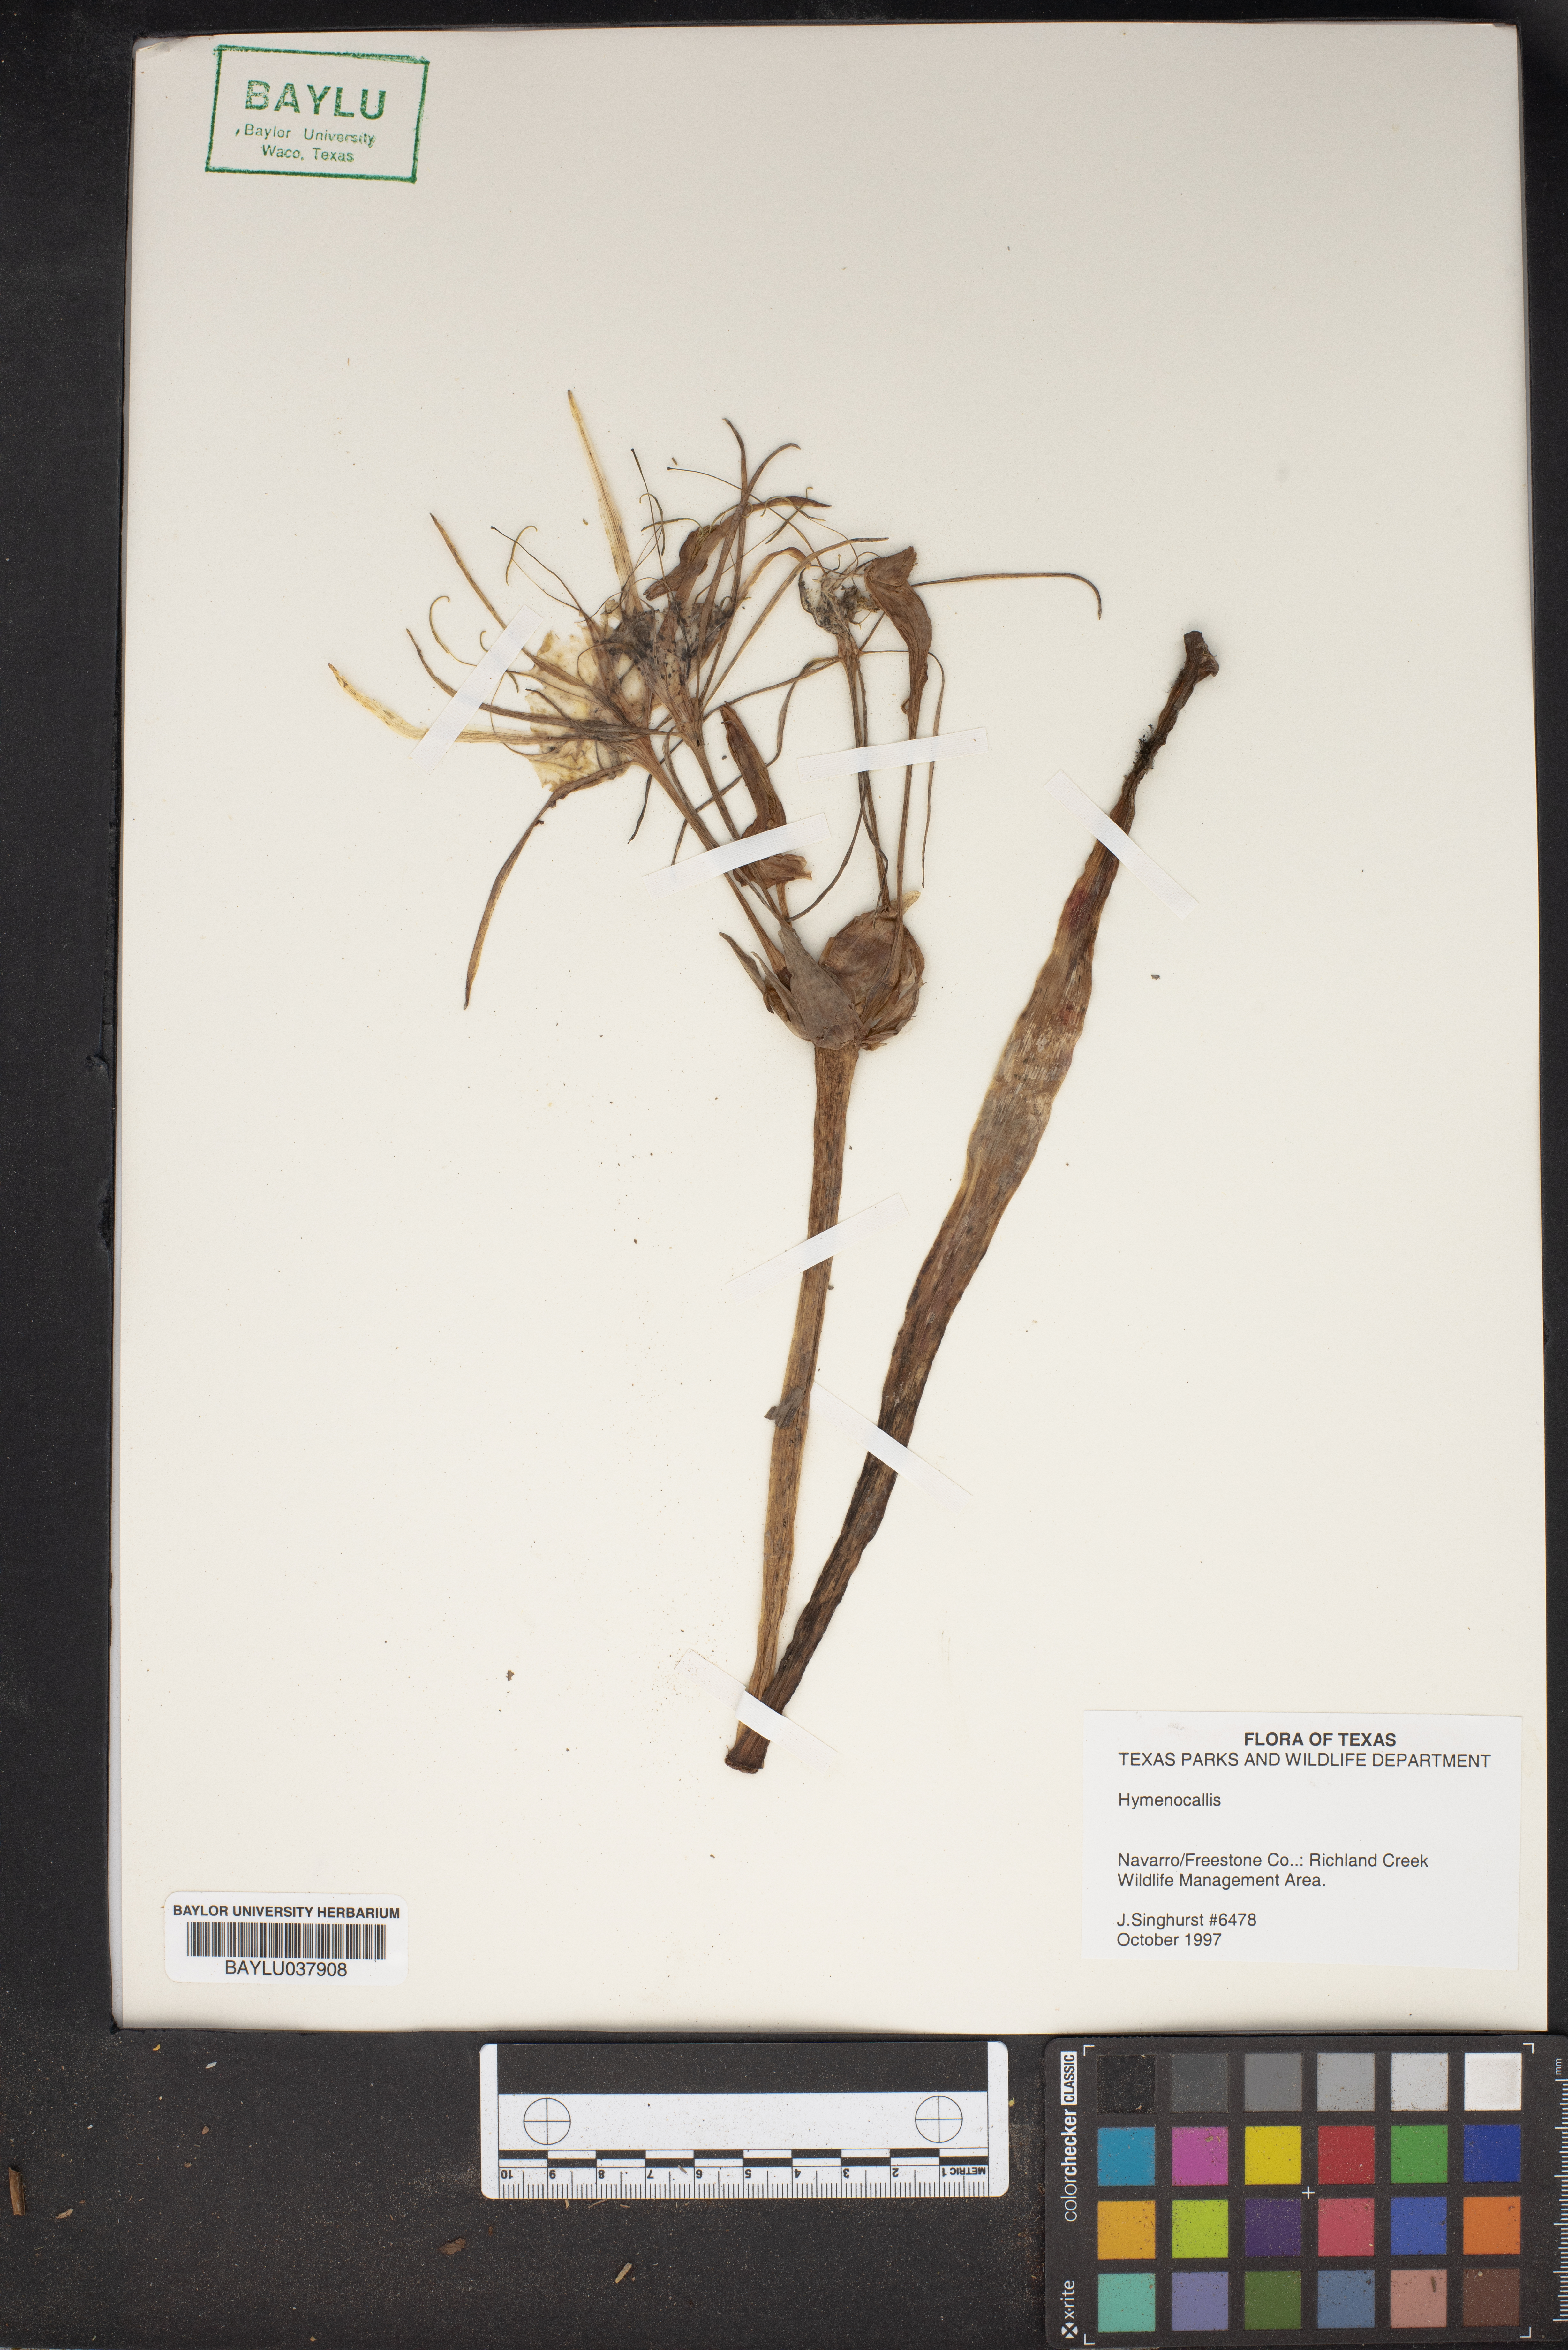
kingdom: Plantae
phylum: Tracheophyta
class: Liliopsida
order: Asparagales
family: Amaryllidaceae
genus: Hymenocallis
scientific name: Hymenocallis
